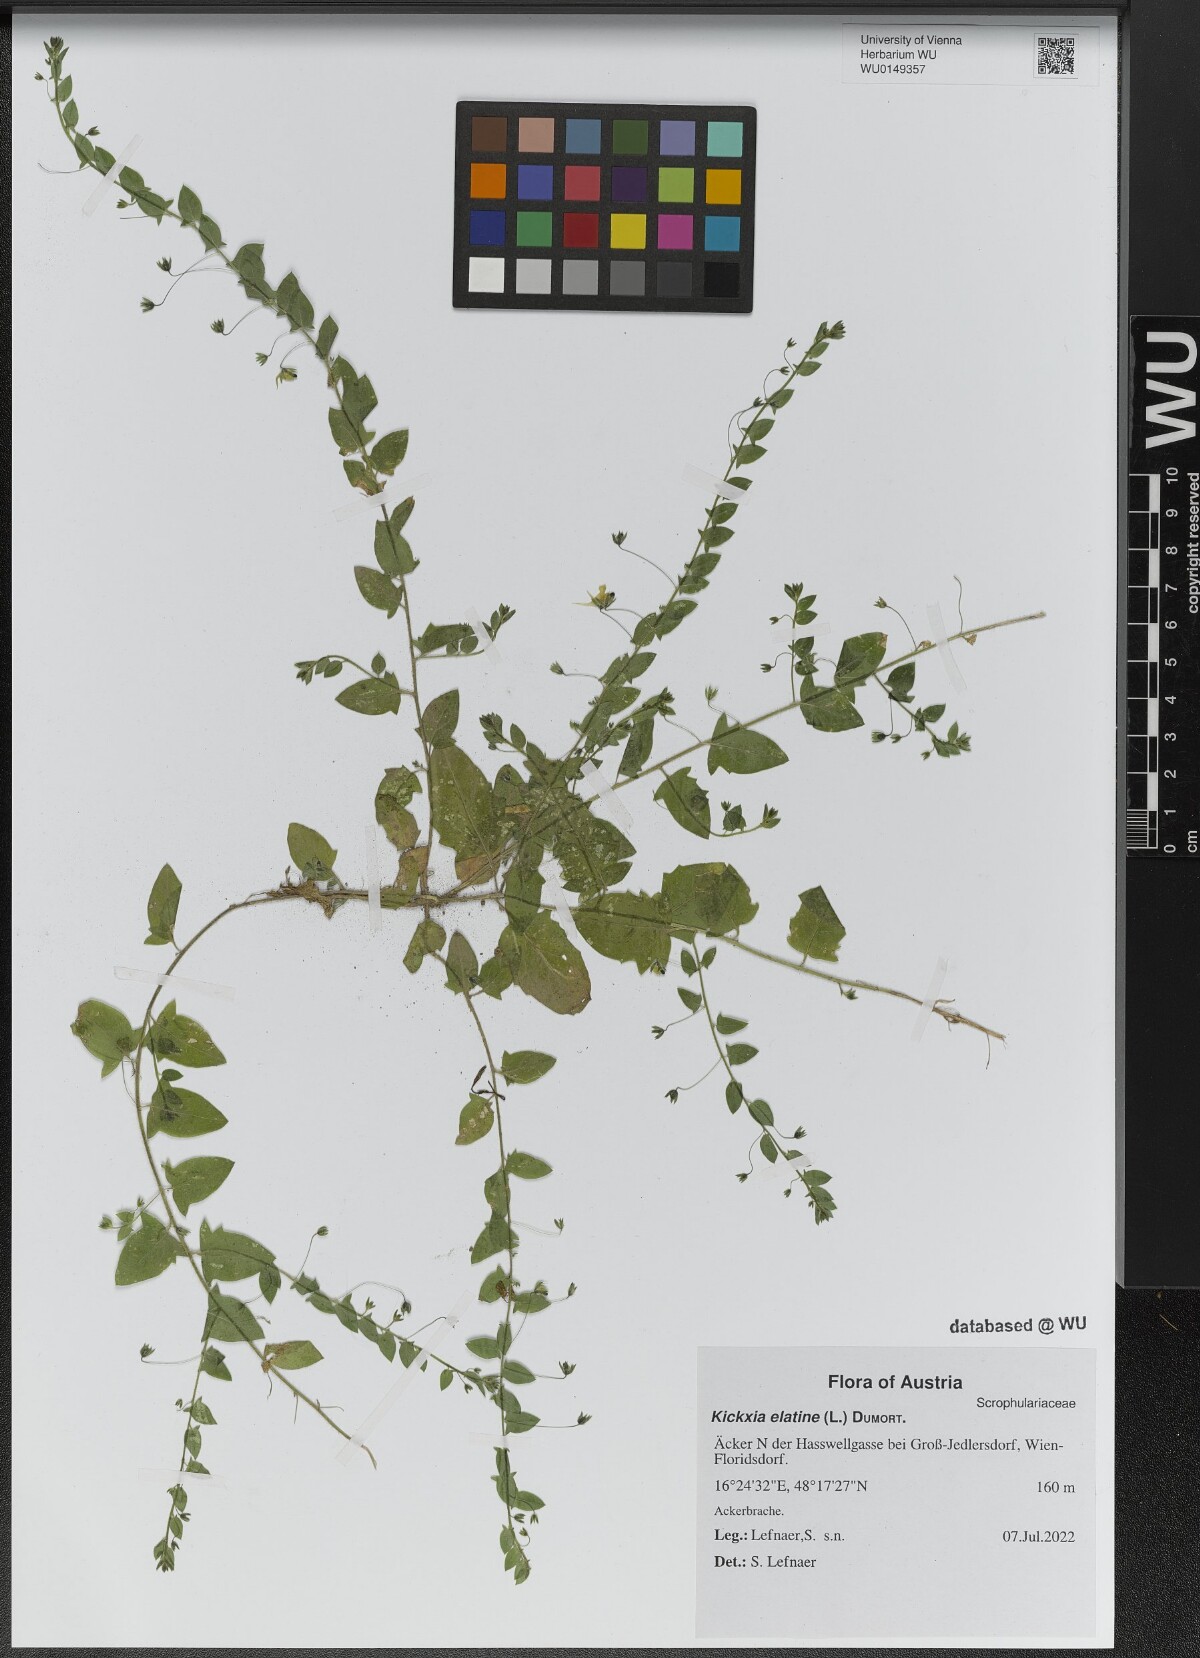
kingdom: Plantae
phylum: Tracheophyta
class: Magnoliopsida
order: Lamiales
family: Plantaginaceae
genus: Kickxia
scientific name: Kickxia elatine
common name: Sharp-leaved fluellen
